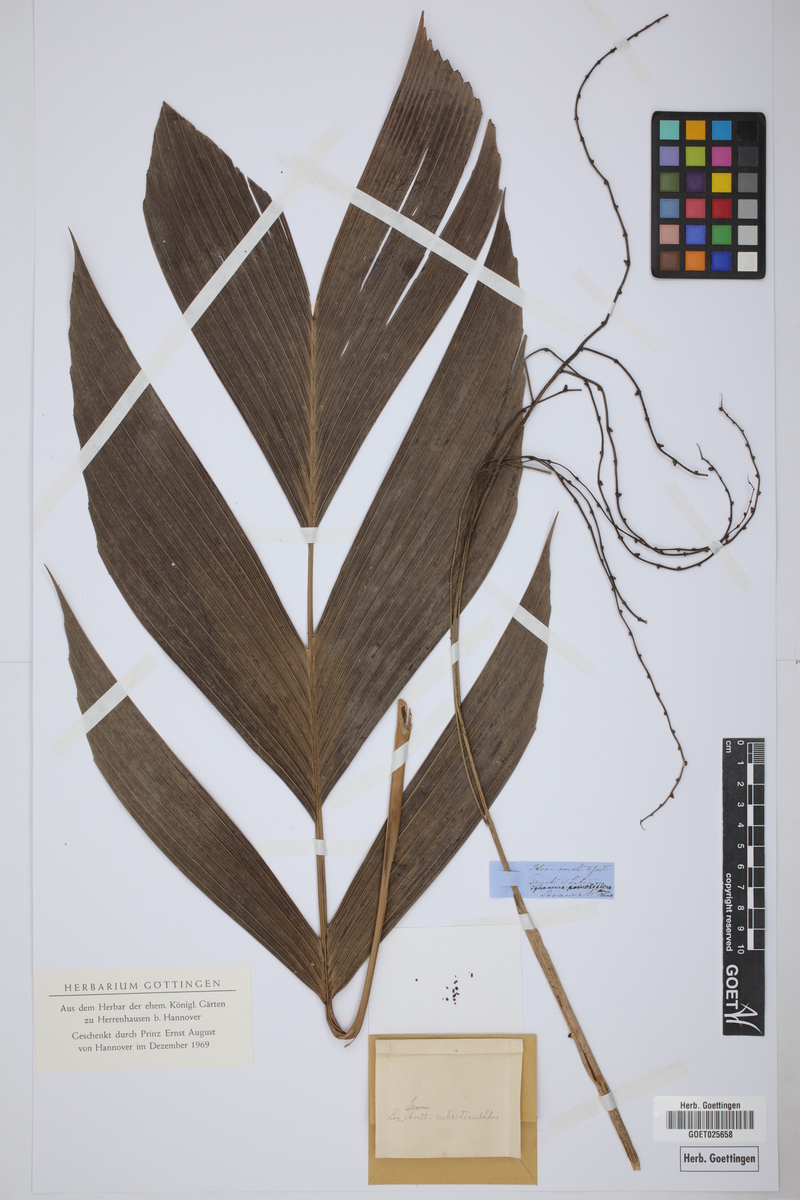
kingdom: Plantae
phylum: Tracheophyta
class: Liliopsida
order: Arecales
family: Arecaceae
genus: Iguanura
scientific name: Iguanura remotiflora
